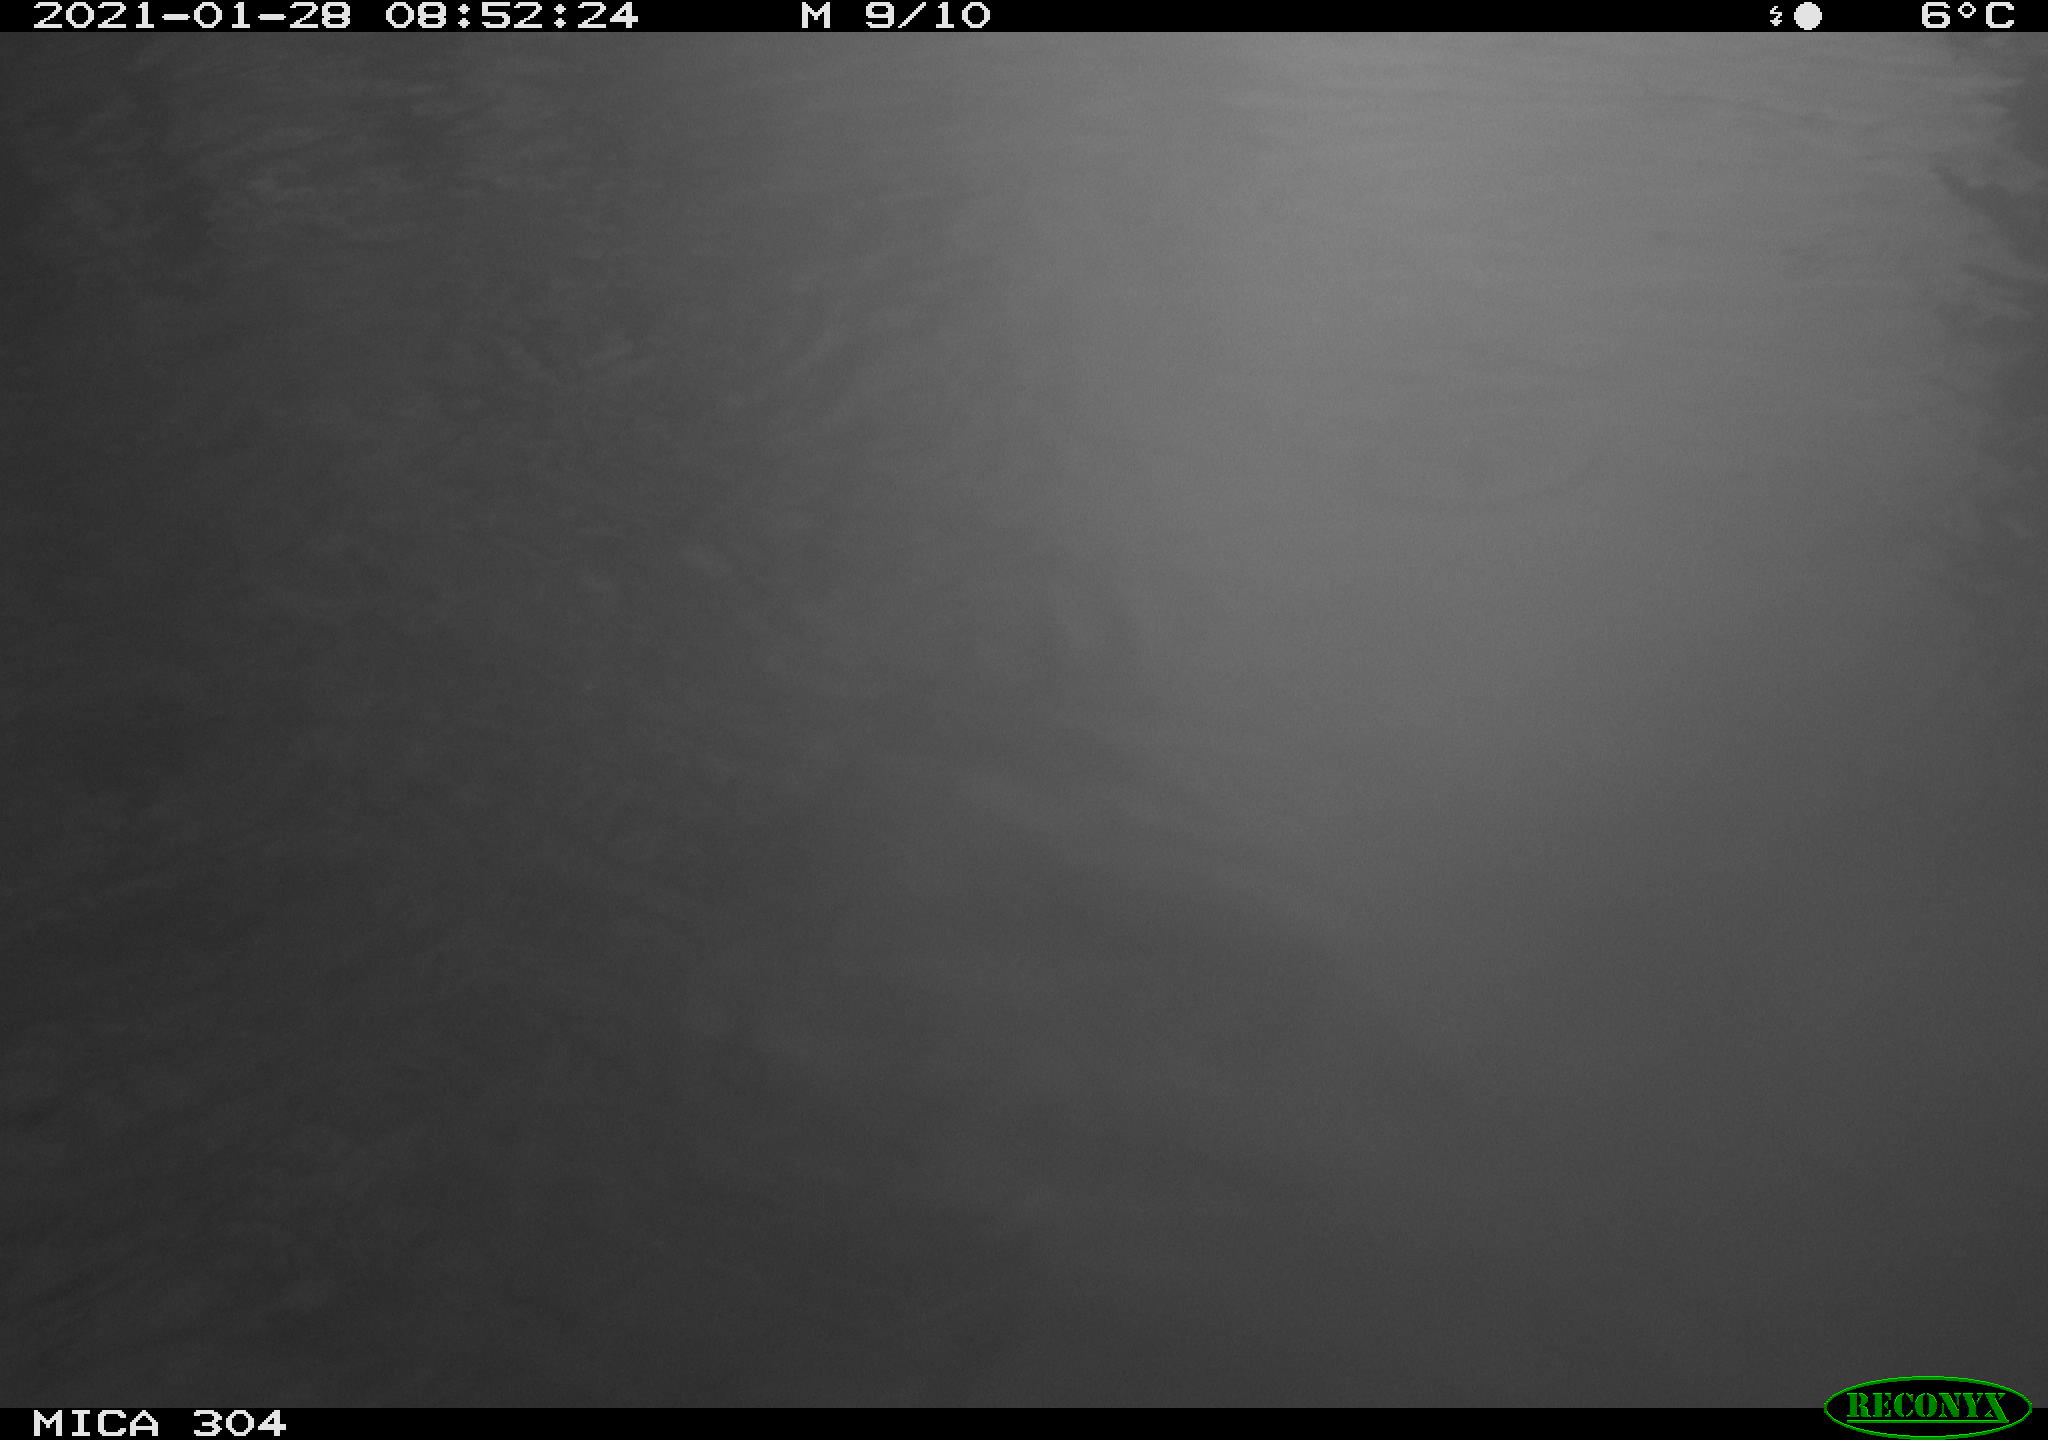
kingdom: Animalia
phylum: Chordata
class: Aves
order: Gruiformes
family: Rallidae
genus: Fulica
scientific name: Fulica atra
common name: Eurasian coot
